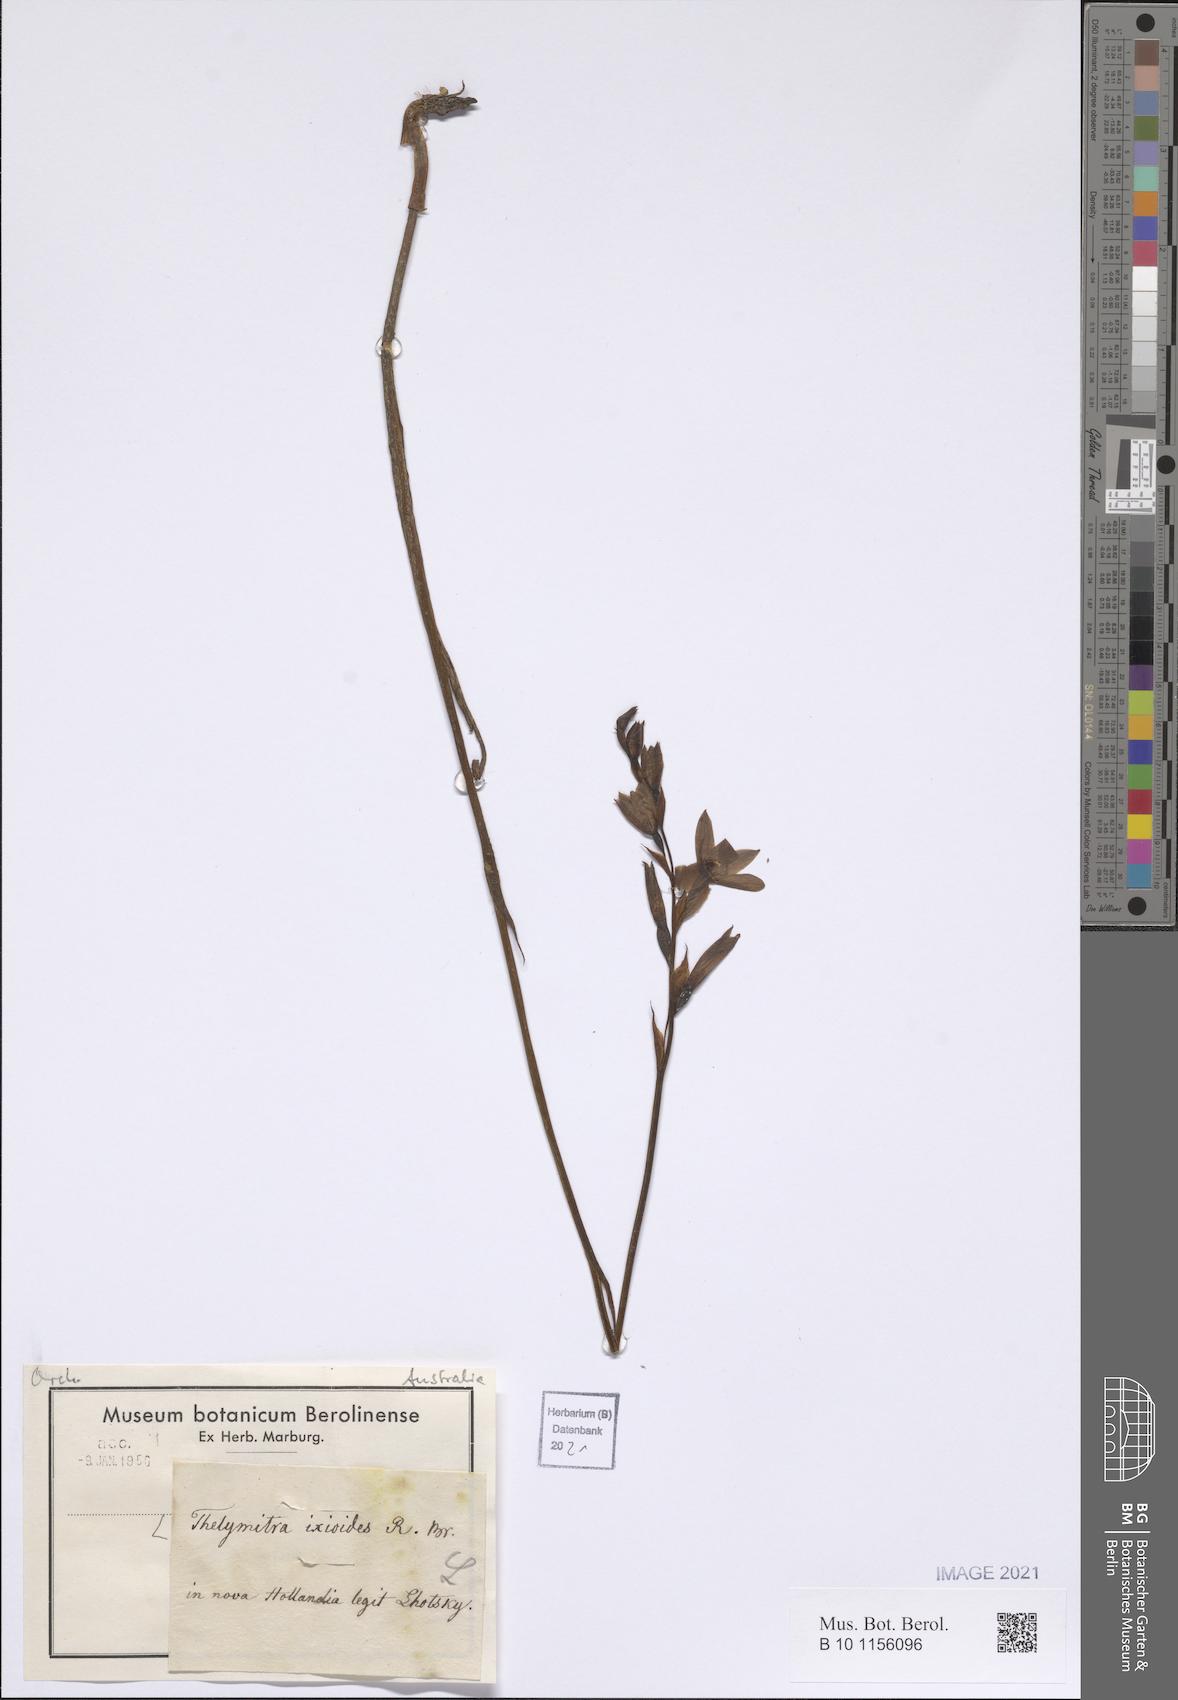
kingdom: Plantae
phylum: Tracheophyta
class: Liliopsida
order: Asparagales
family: Orchidaceae
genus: Thelymitra
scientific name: Thelymitra ixioides
